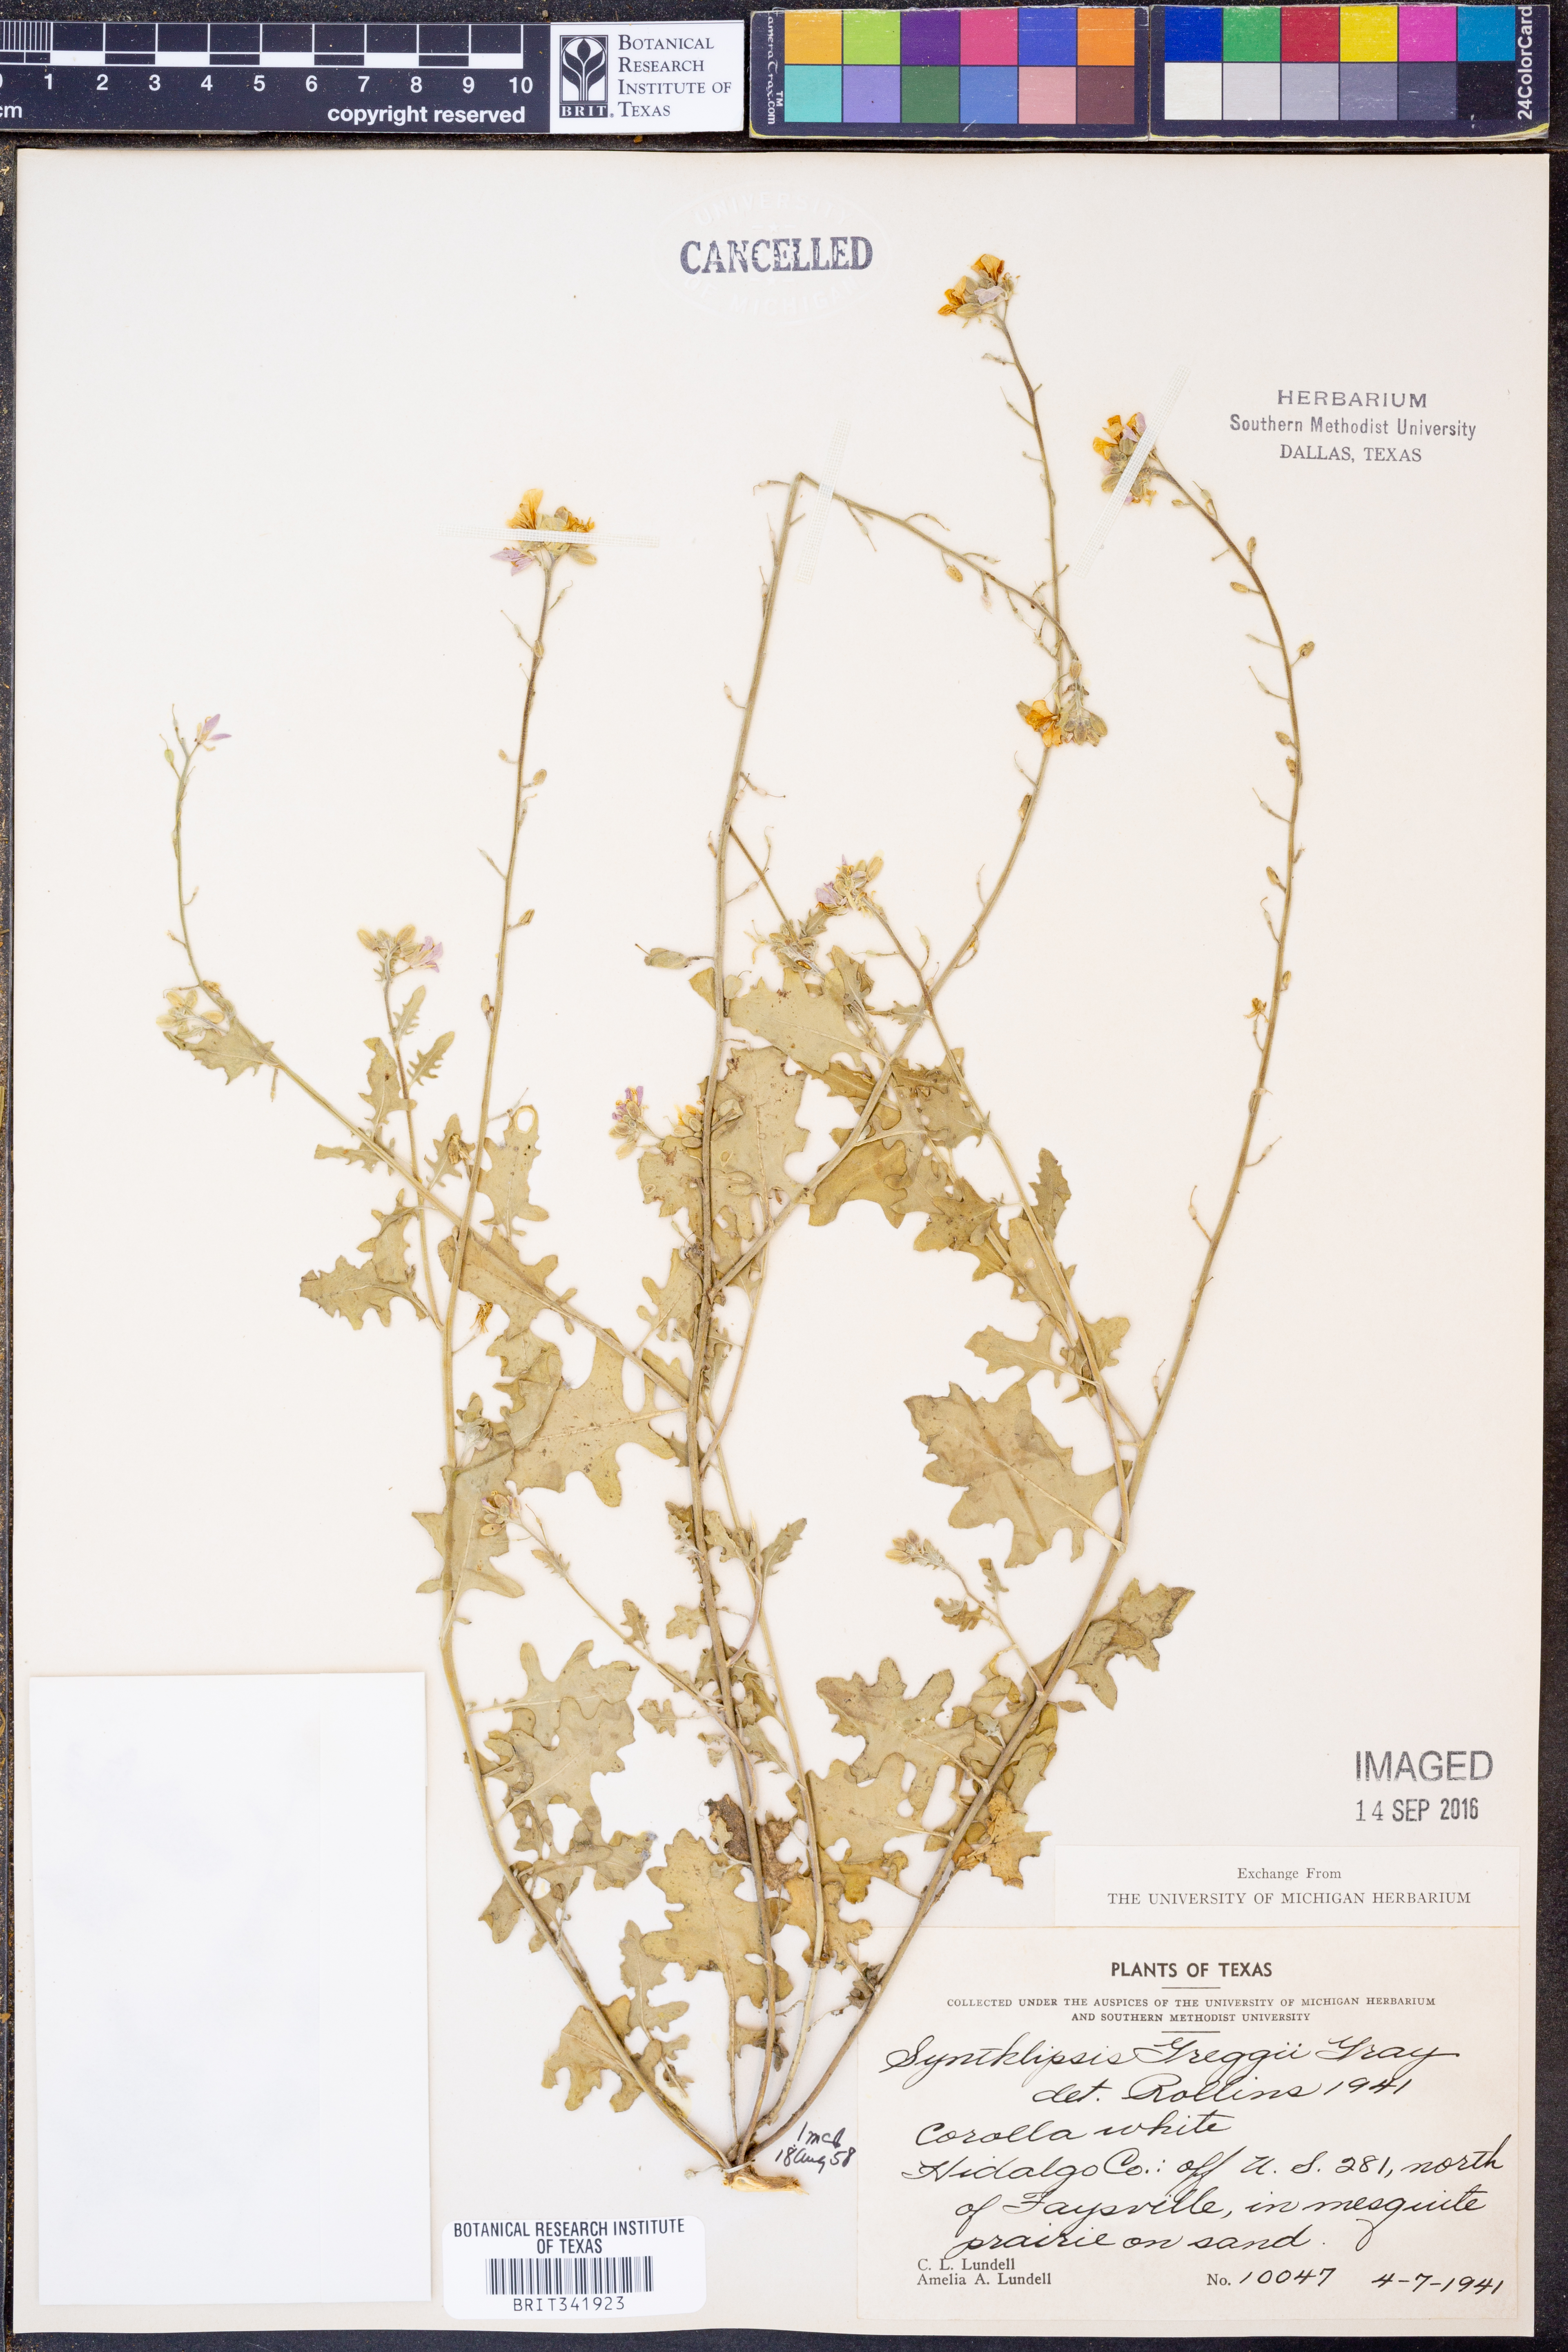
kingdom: Plantae
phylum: Tracheophyta
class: Magnoliopsida
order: Brassicales
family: Brassicaceae
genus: Synthlipsis
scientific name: Synthlipsis greggii
